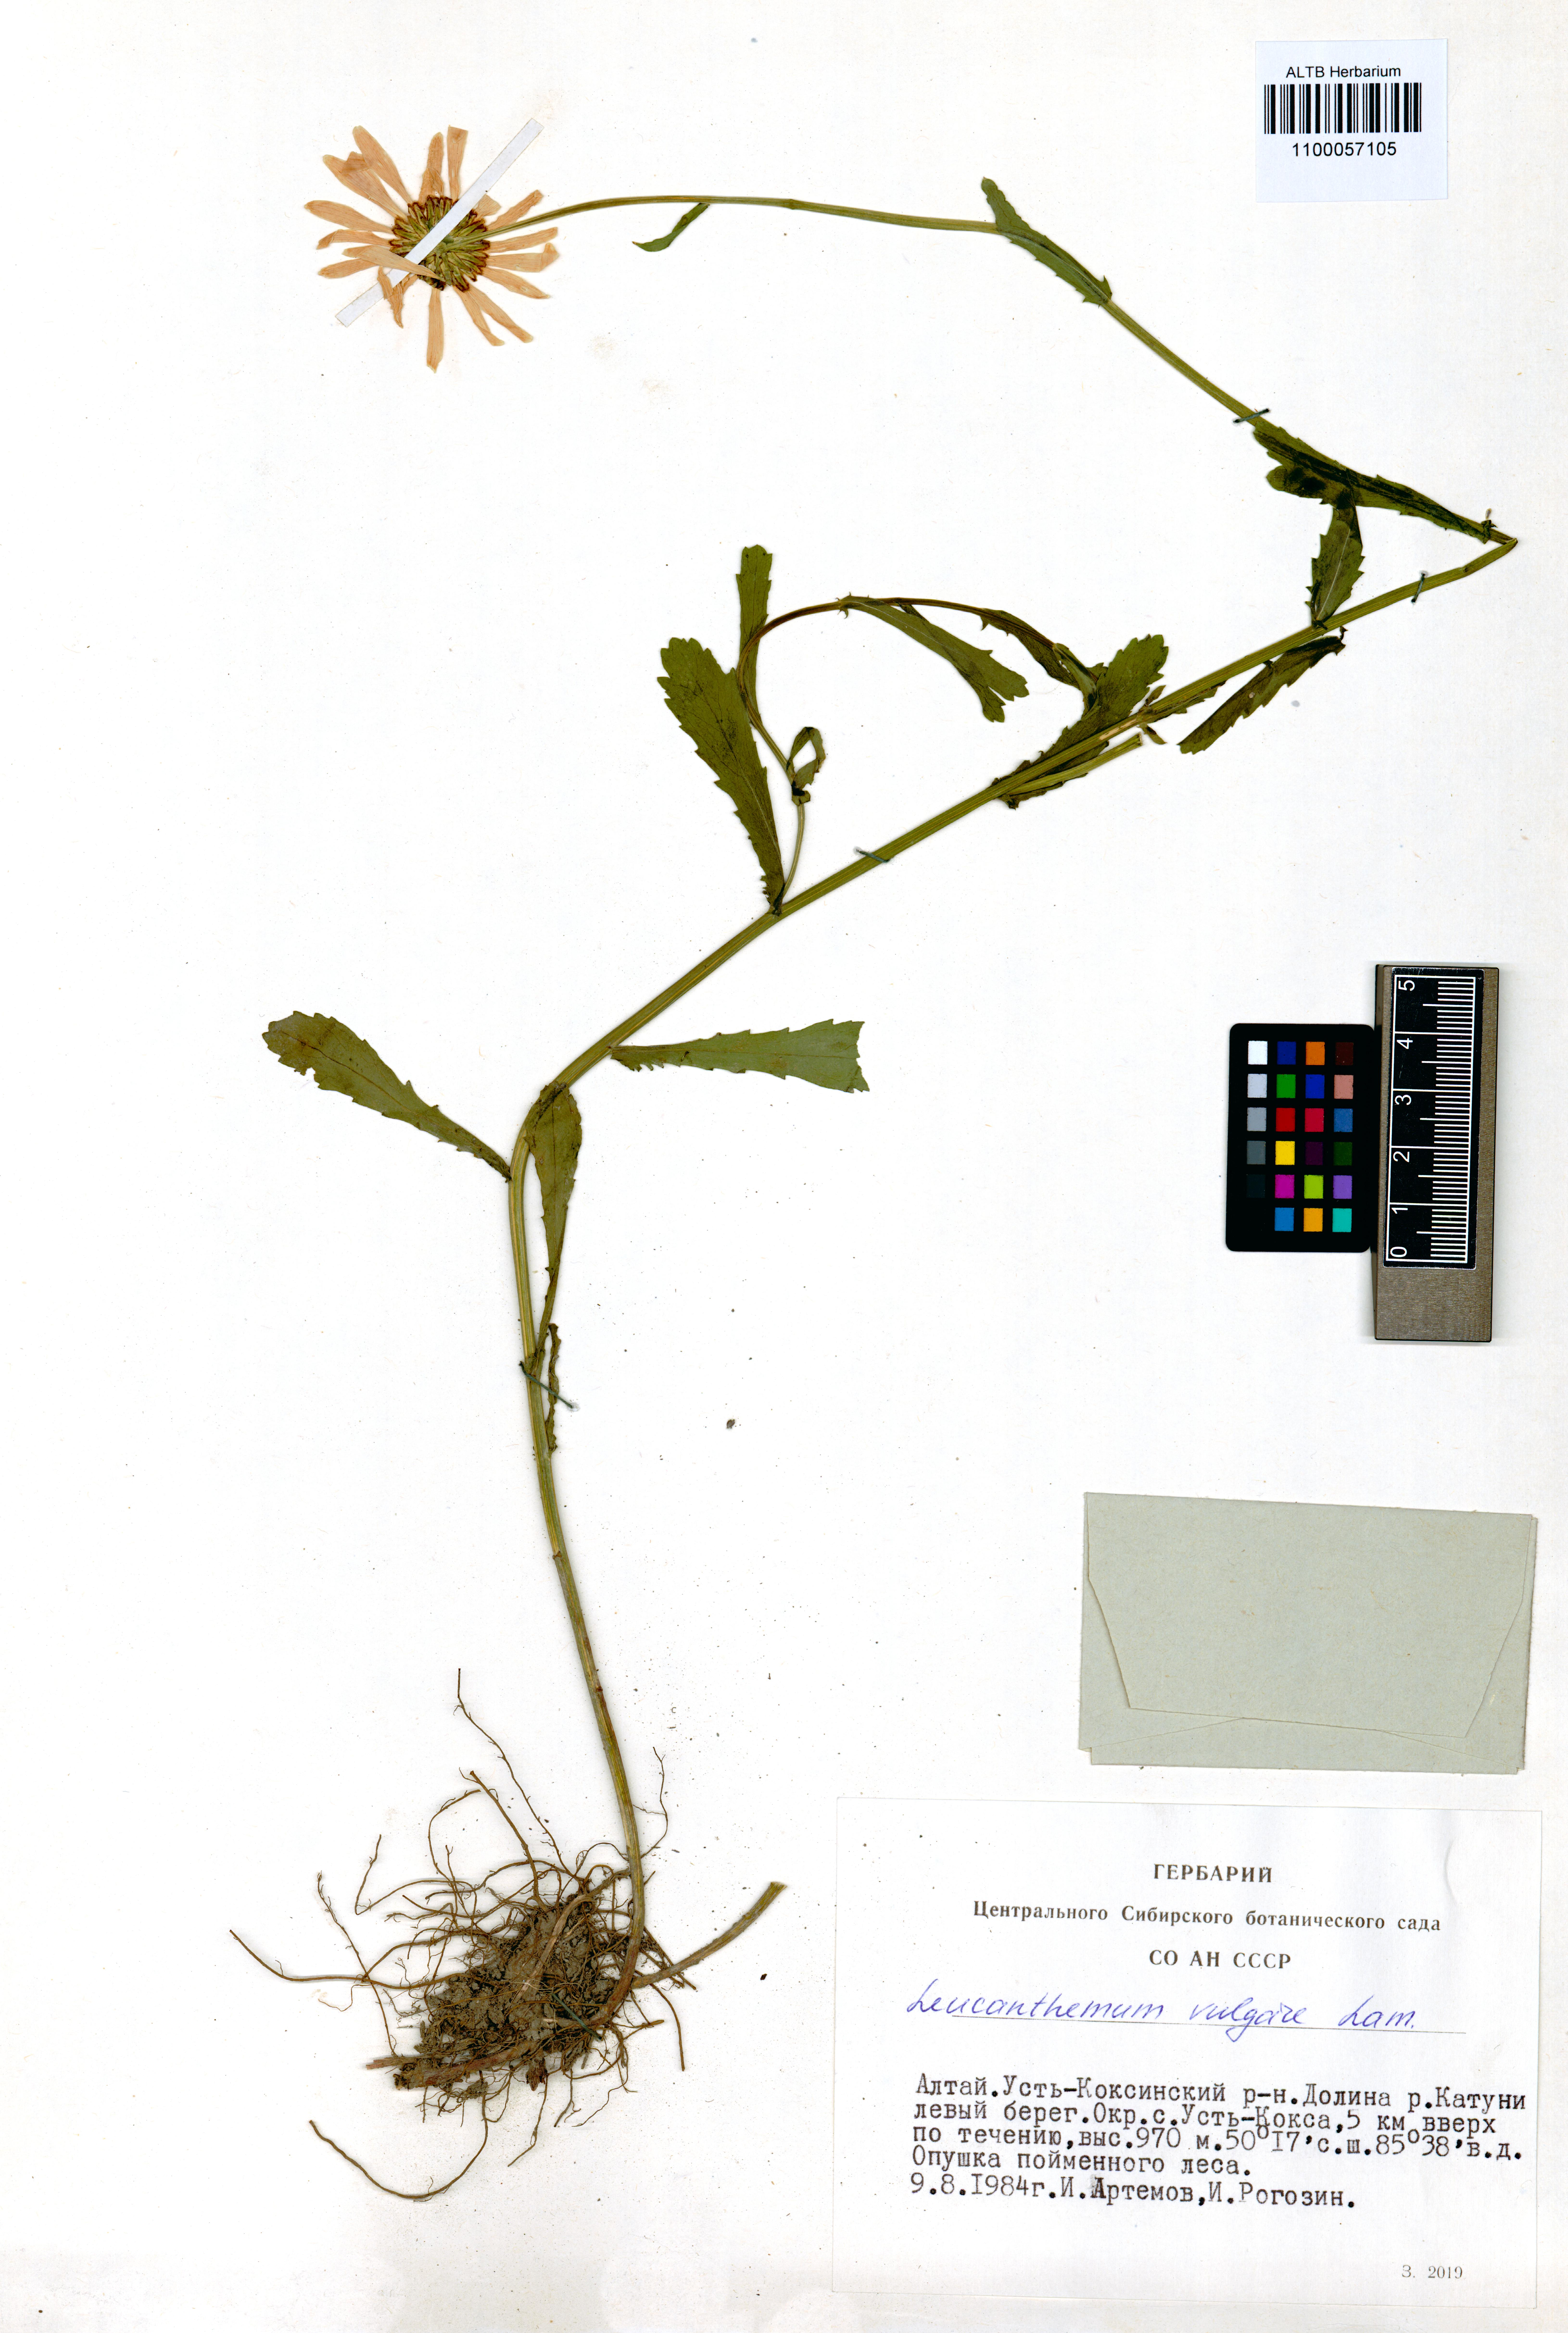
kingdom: Plantae
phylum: Tracheophyta
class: Magnoliopsida
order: Asterales
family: Asteraceae
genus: Leucanthemum
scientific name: Leucanthemum vulgare
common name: Oxeye daisy
